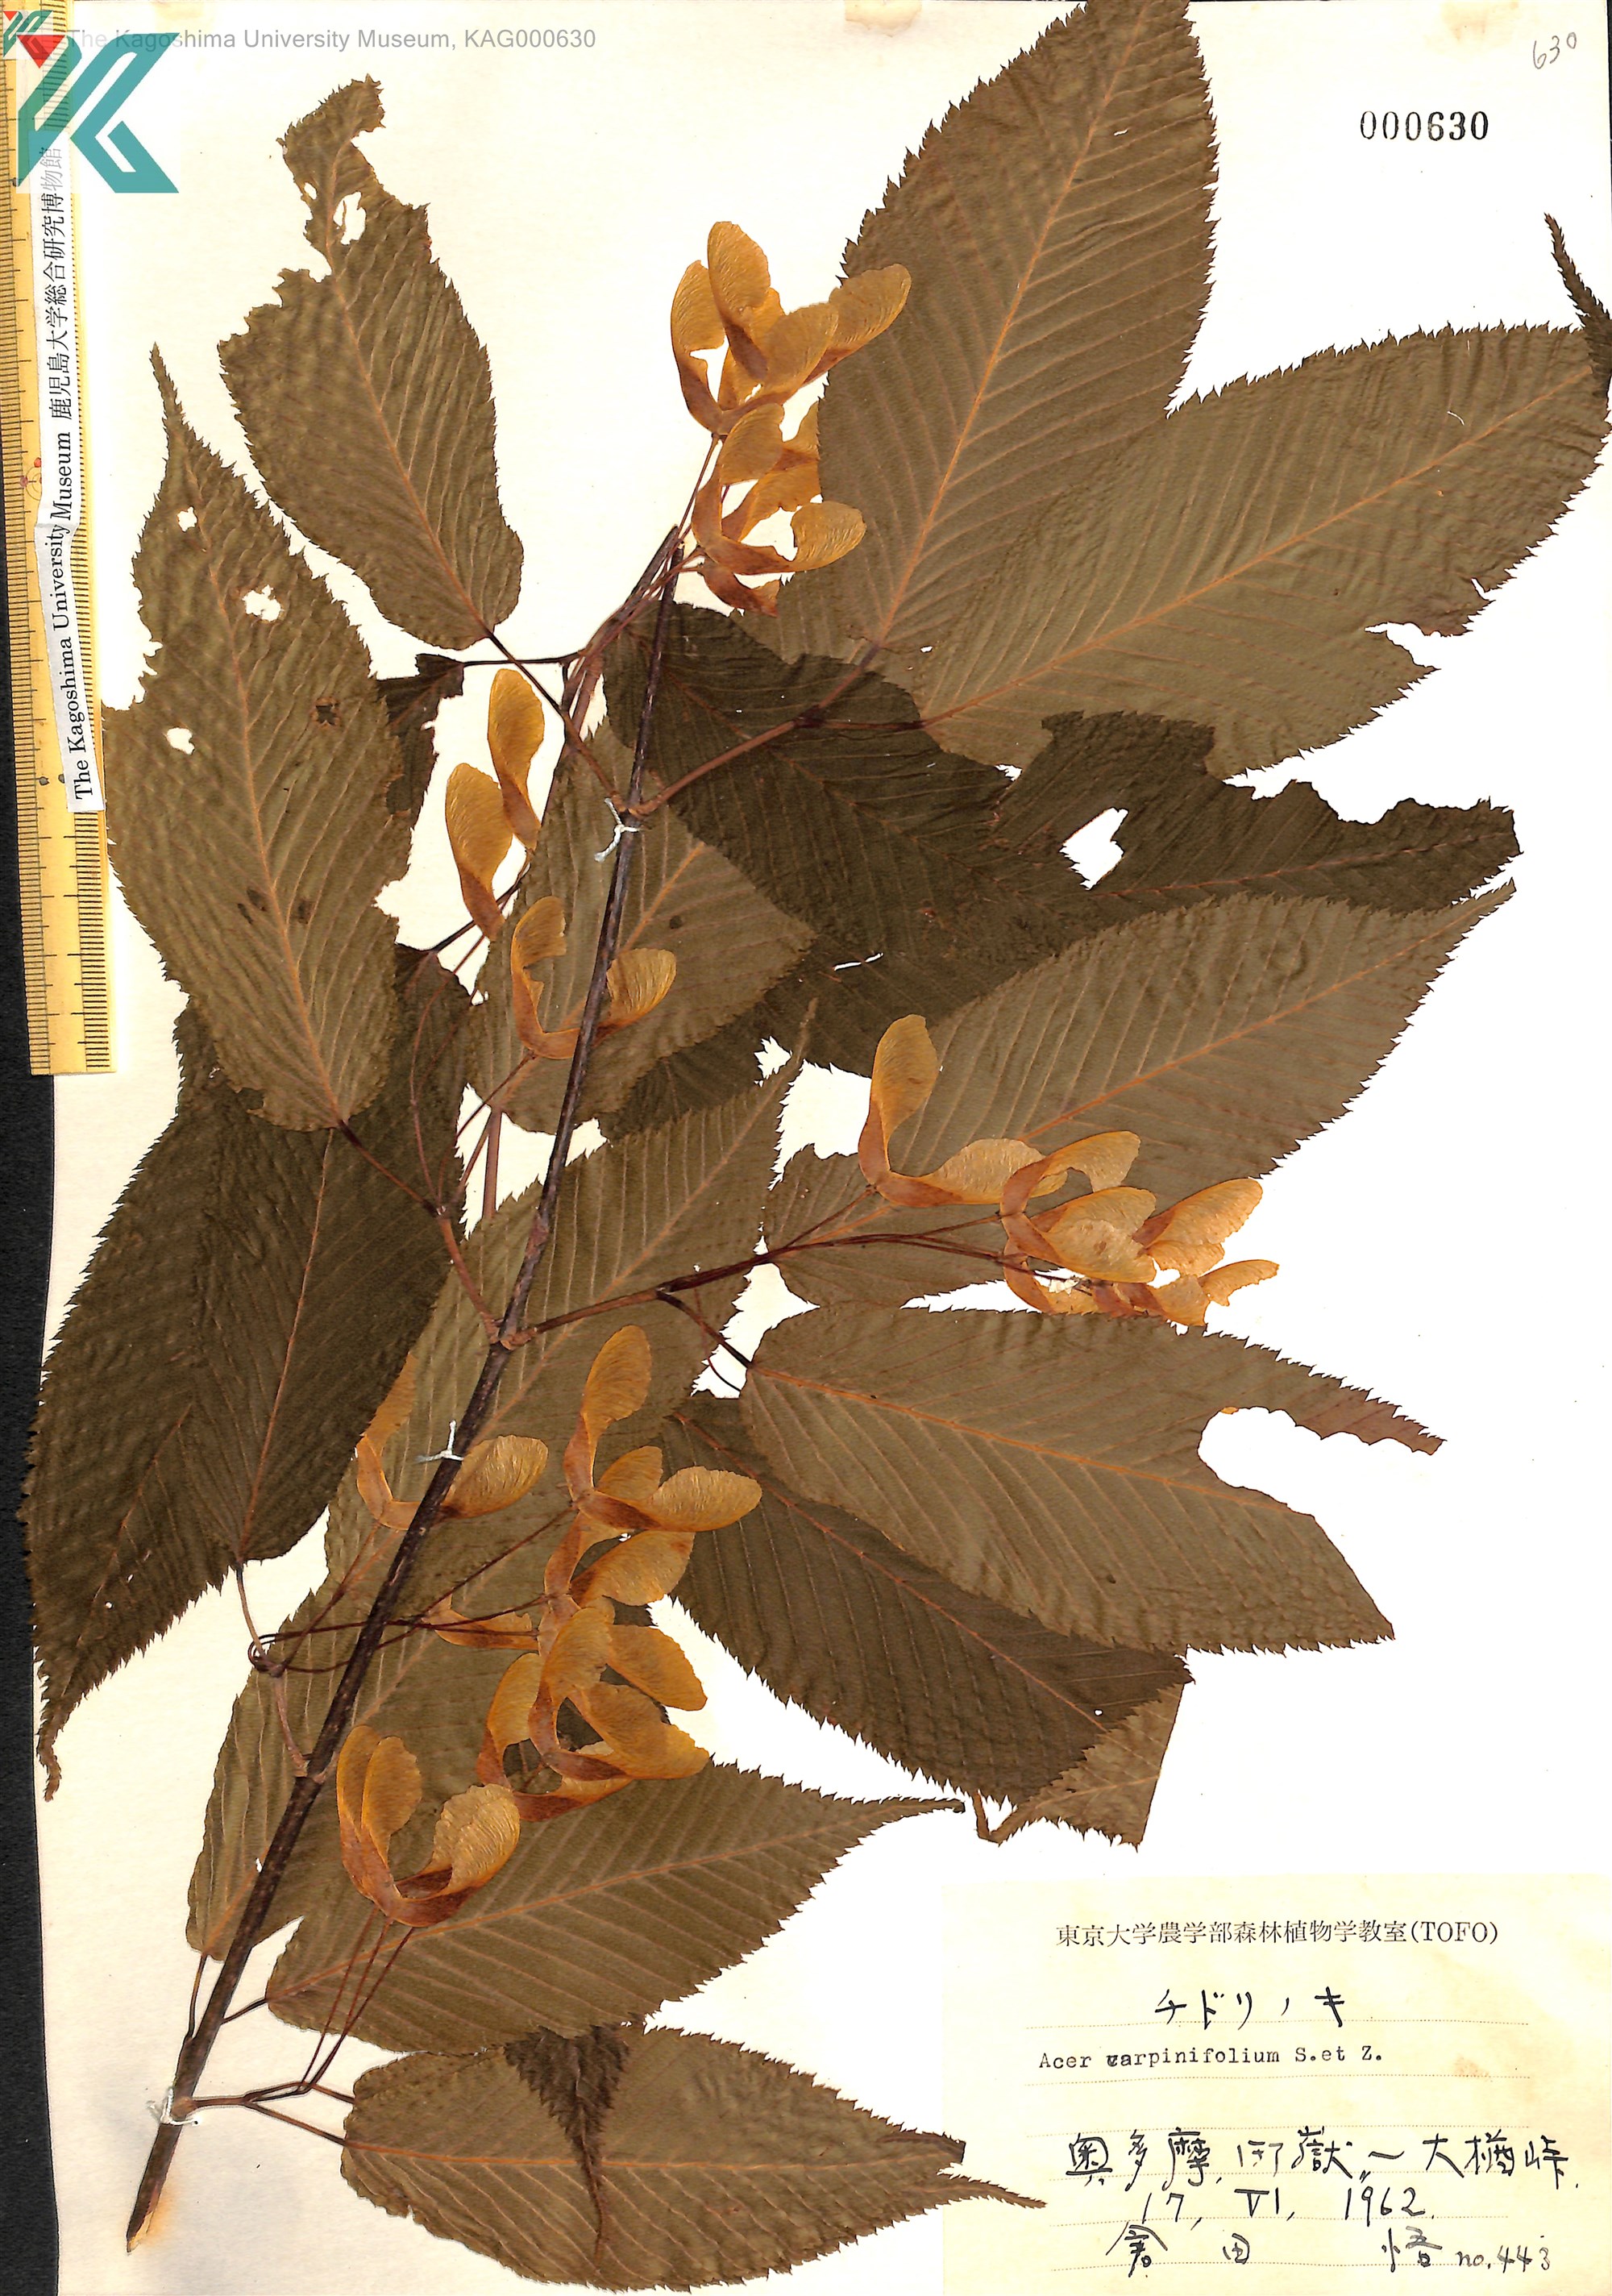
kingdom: Plantae
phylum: Tracheophyta
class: Magnoliopsida
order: Sapindales
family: Sapindaceae
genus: Acer
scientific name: Acer carpinifolium
